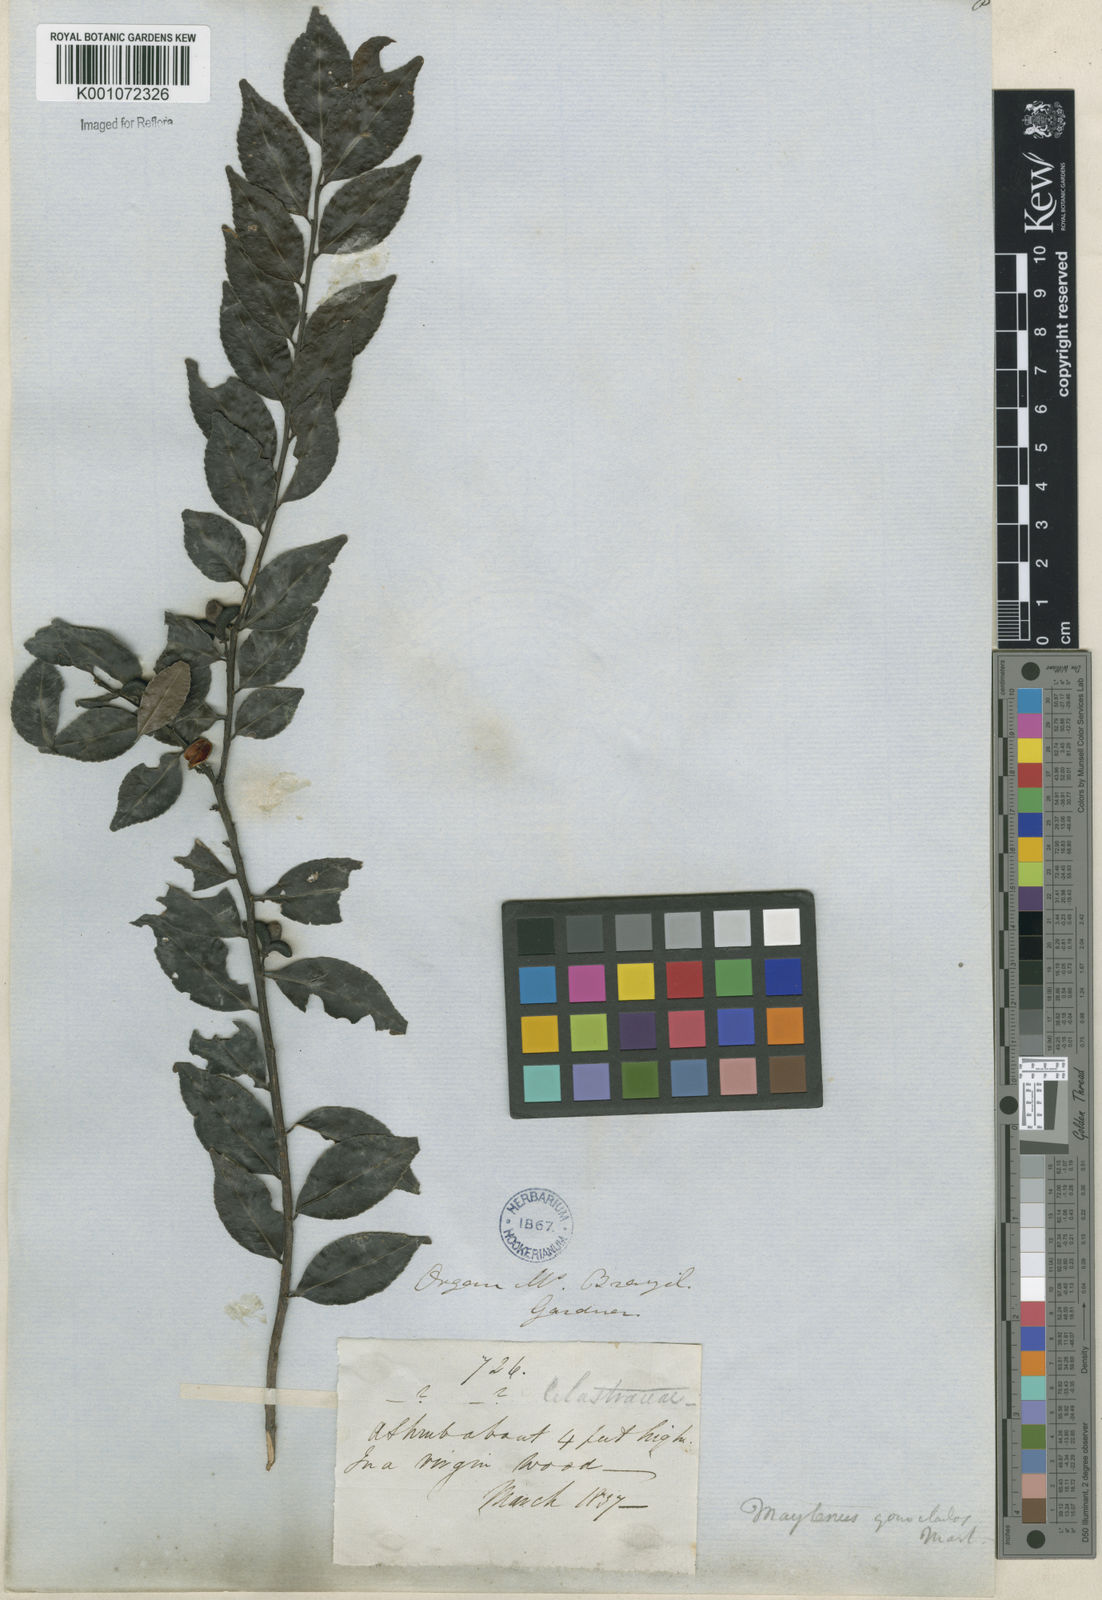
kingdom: Plantae
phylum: Tracheophyta
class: Magnoliopsida
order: Celastrales
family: Celastraceae
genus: Maytenus
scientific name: Maytenus
